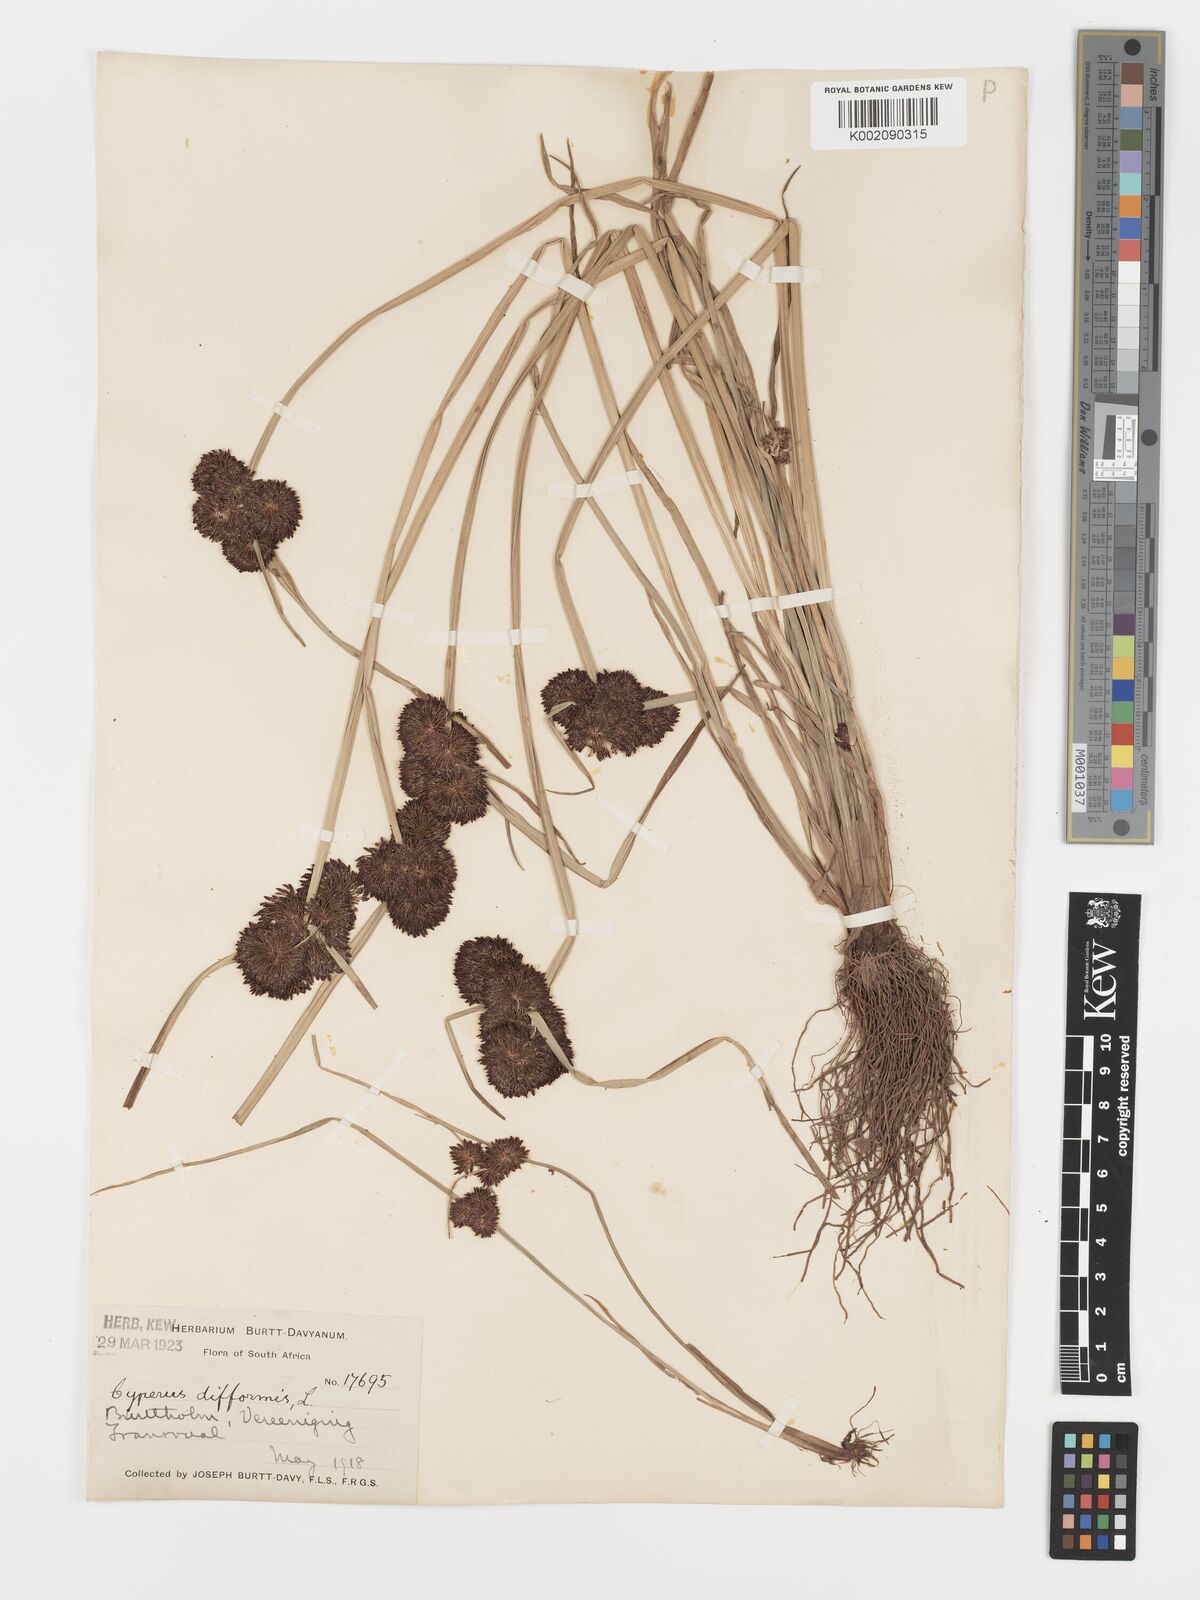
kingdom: Plantae
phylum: Tracheophyta
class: Liliopsida
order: Poales
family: Cyperaceae
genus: Cyperus
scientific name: Cyperus difformis
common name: Variable flatsedge
